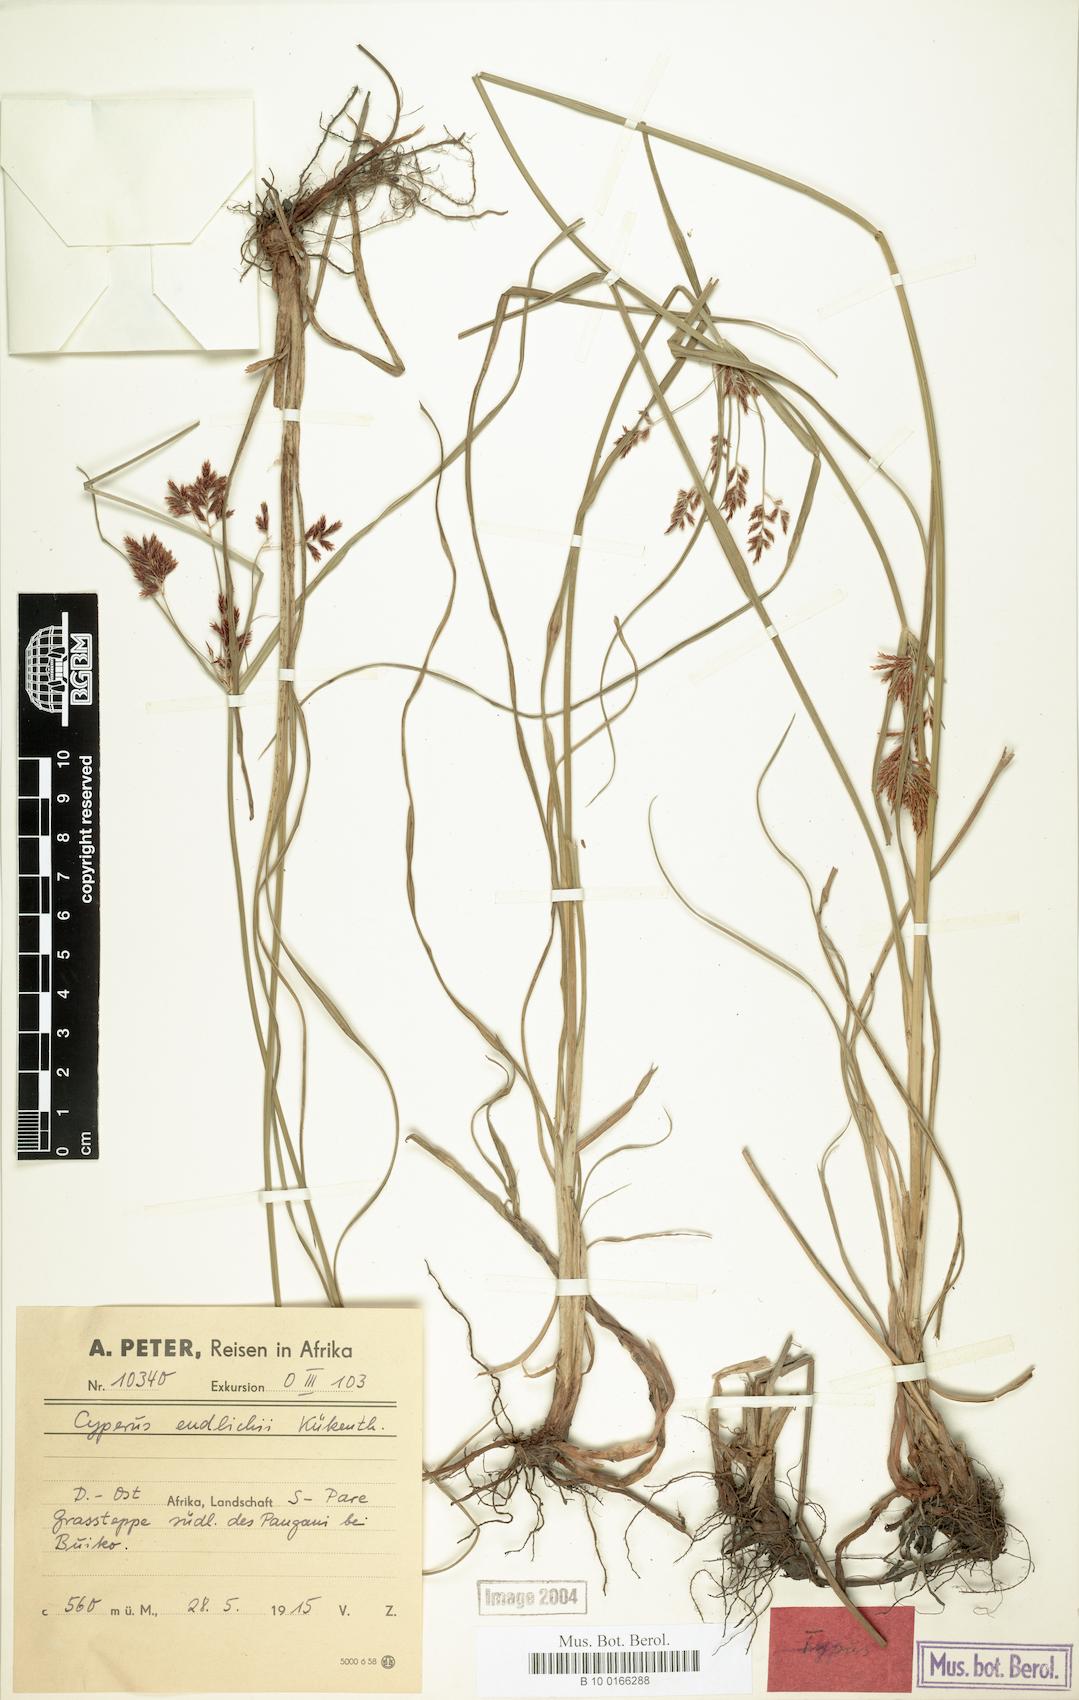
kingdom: Plantae
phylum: Tracheophyta
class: Liliopsida
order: Poales
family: Cyperaceae
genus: Cyperus
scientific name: Cyperus endlichii
